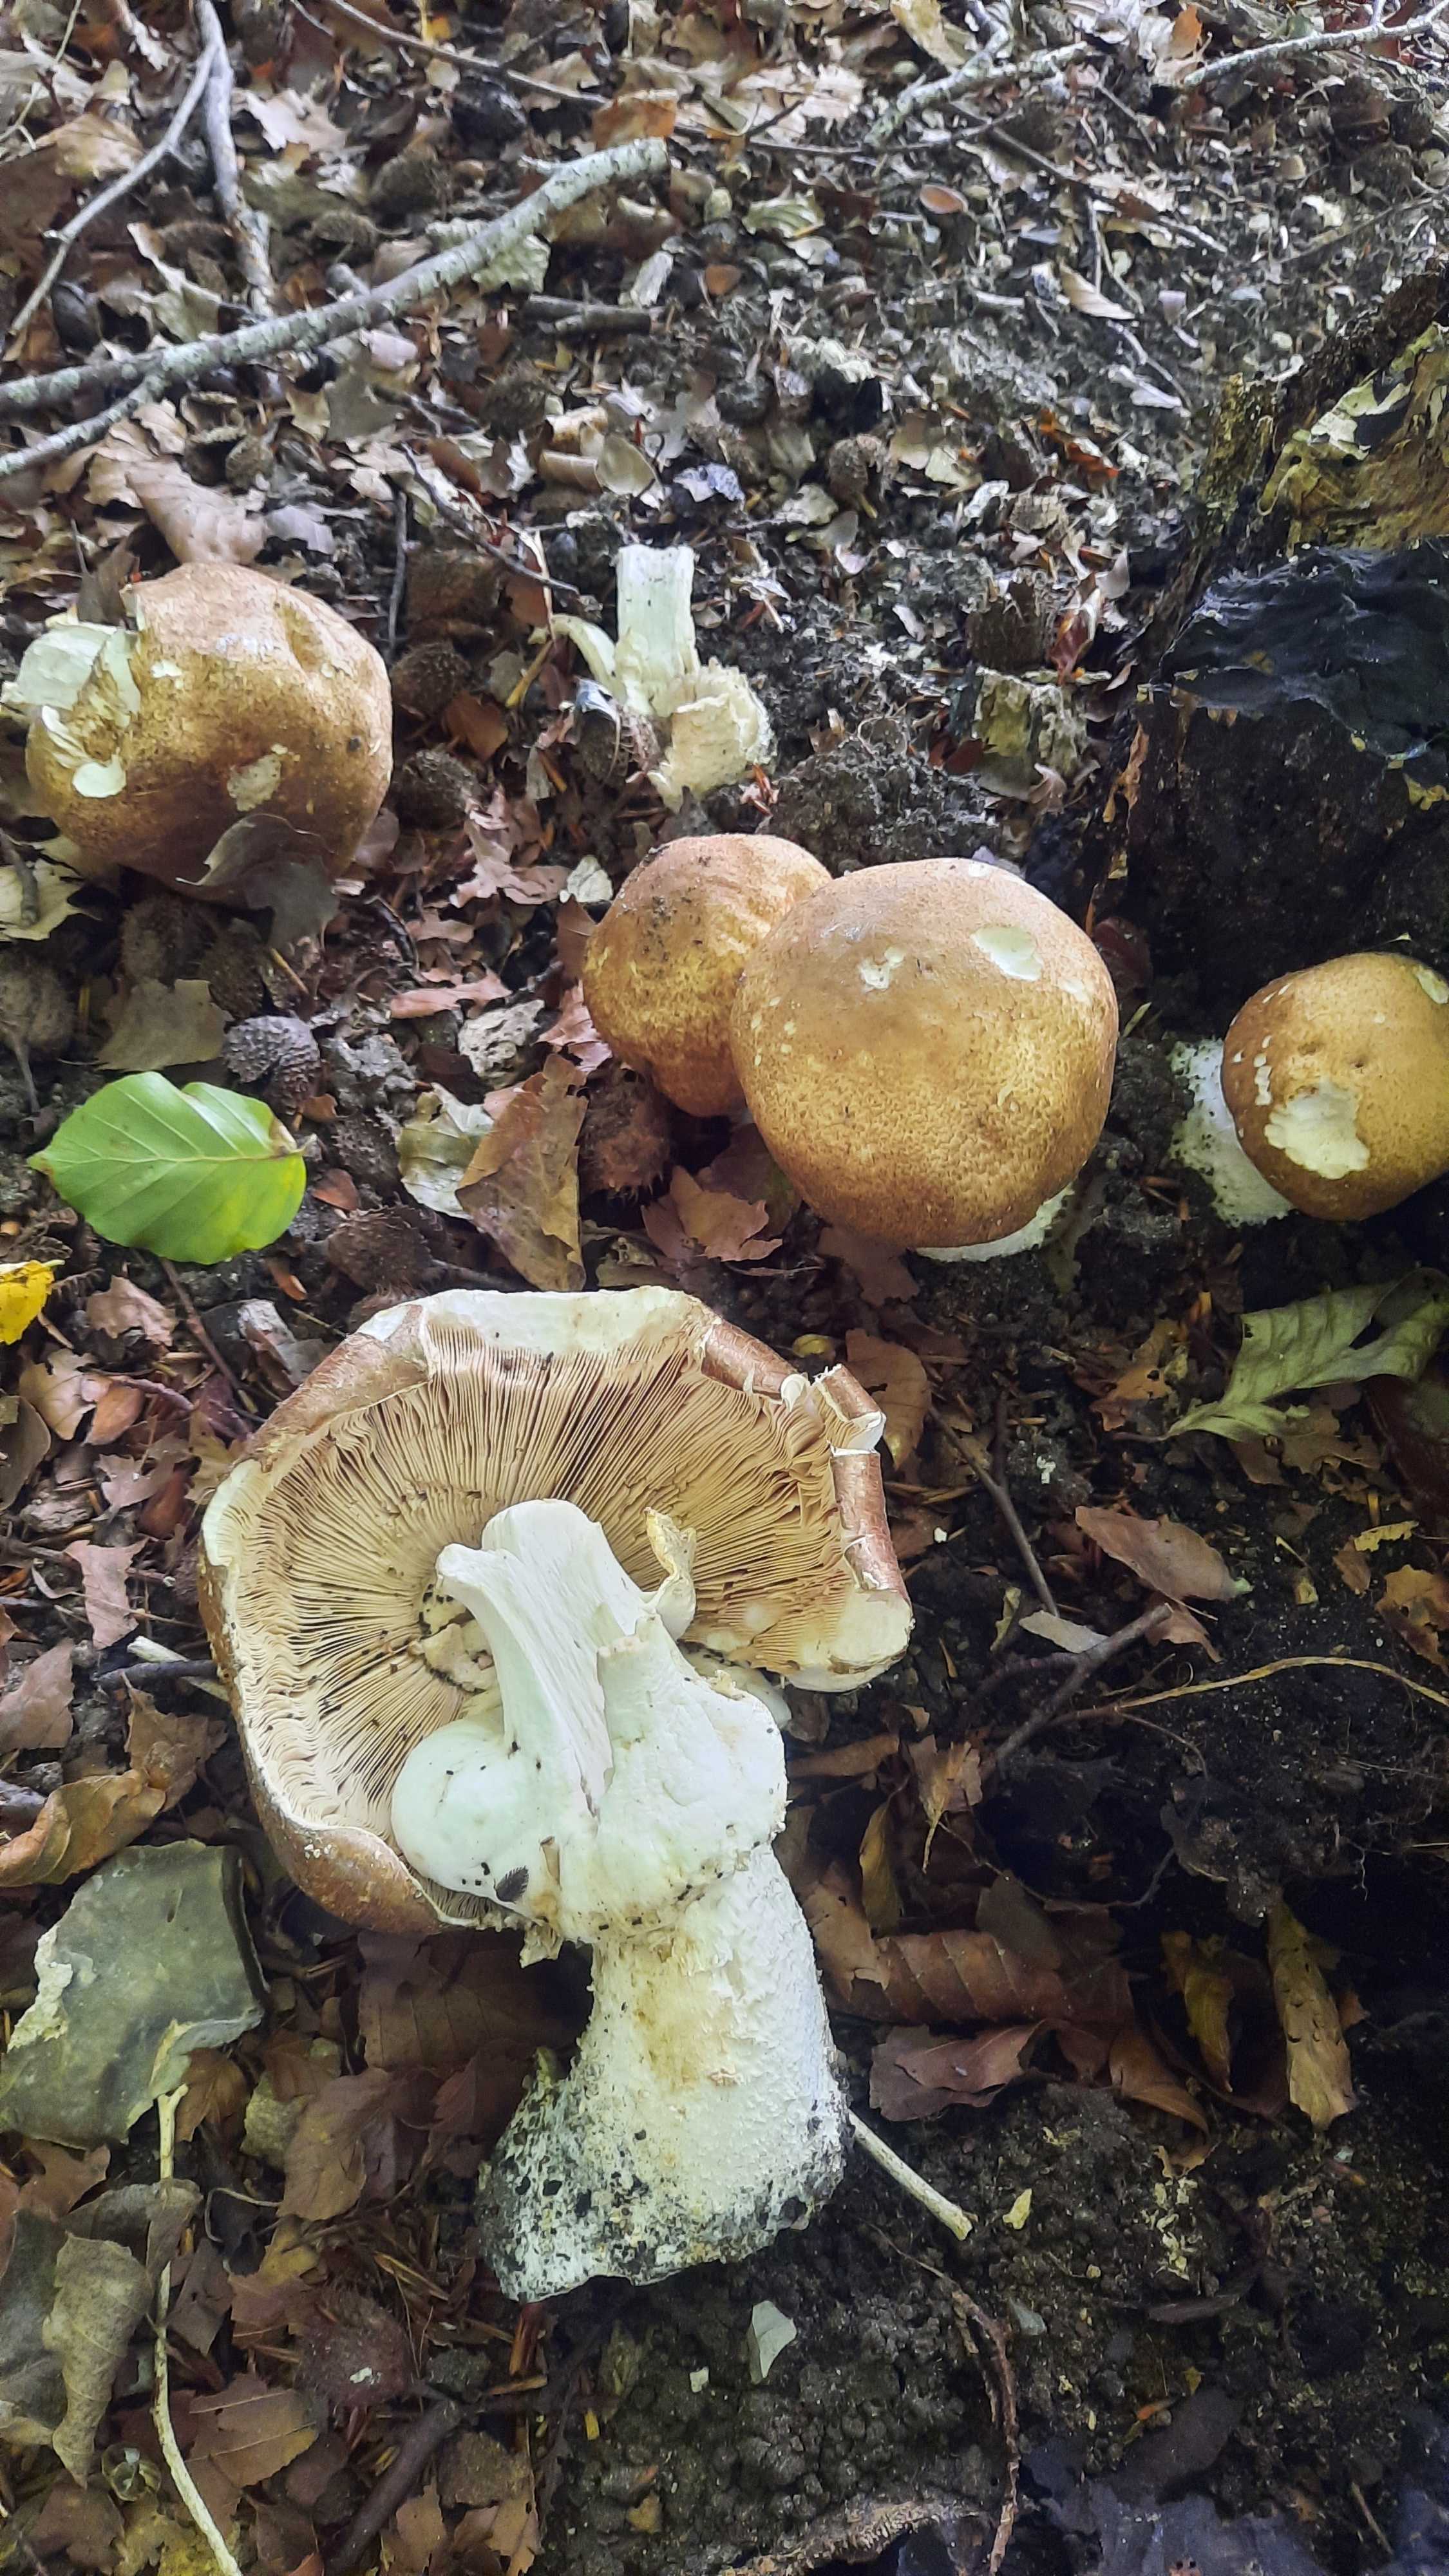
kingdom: Fungi
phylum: Basidiomycota
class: Agaricomycetes
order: Agaricales
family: Agaricaceae
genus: Agaricus
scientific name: Agaricus augustus
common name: prægtig champignon
